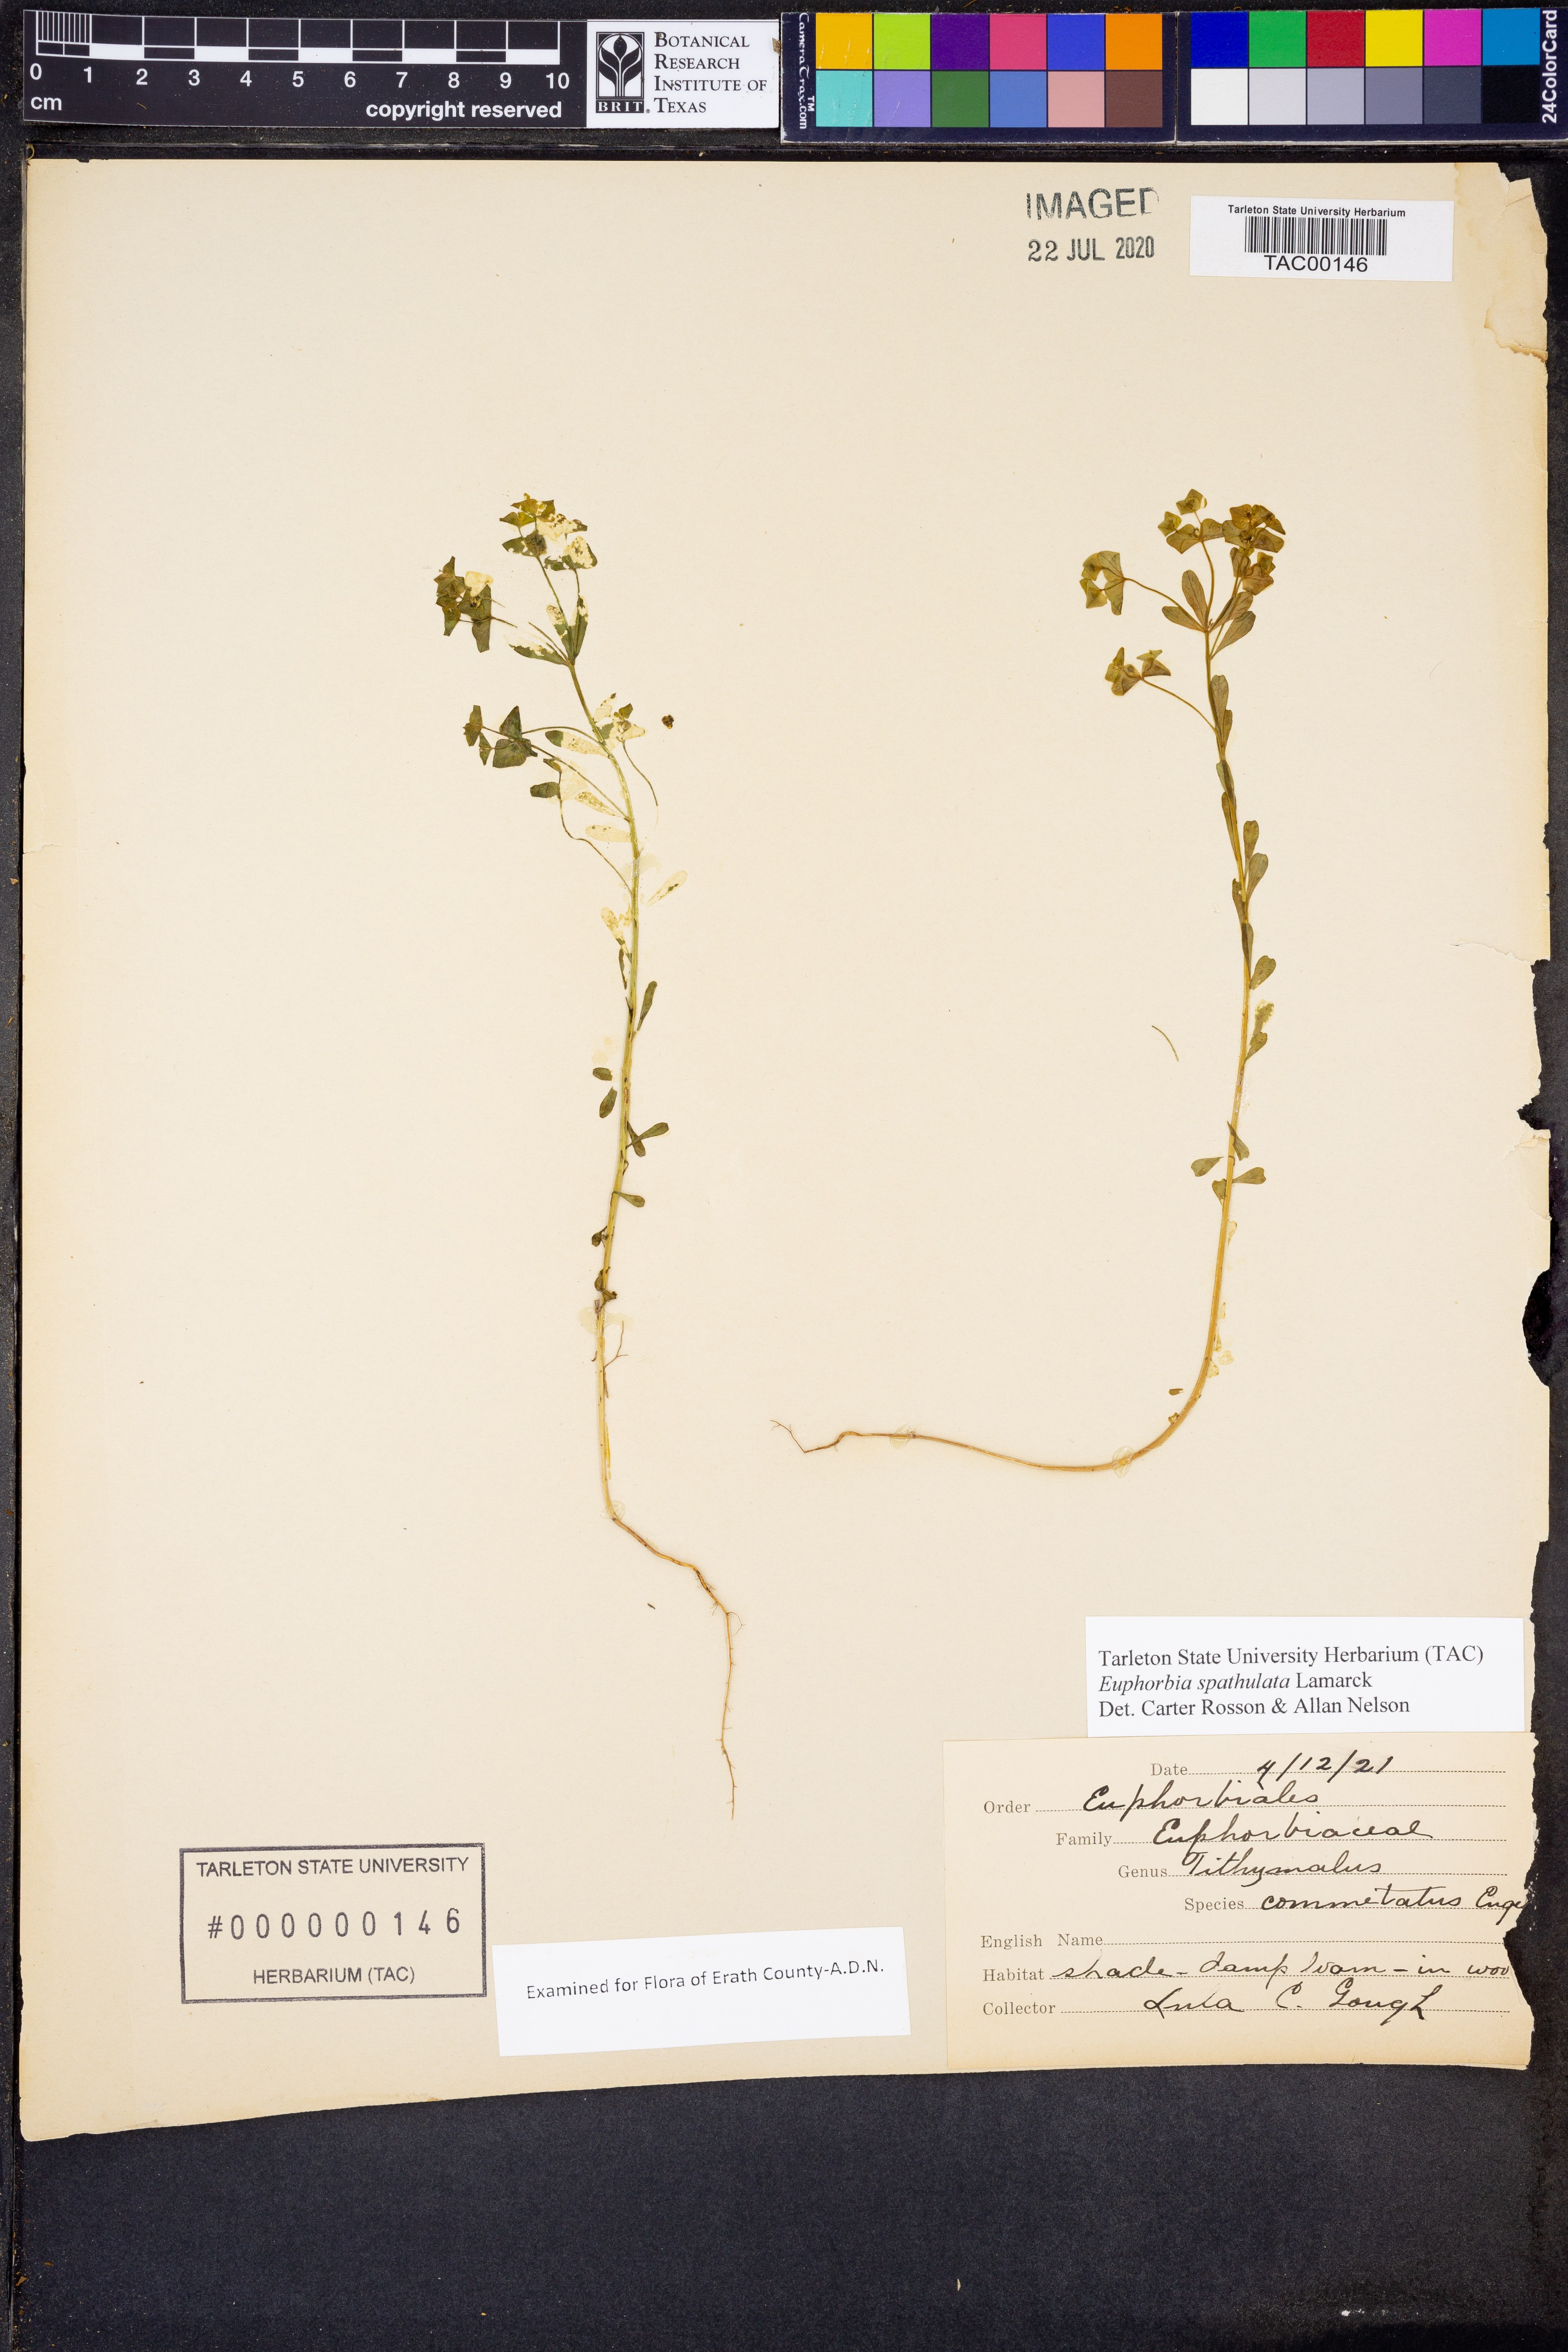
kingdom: Plantae
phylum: Tracheophyta
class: Magnoliopsida
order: Malpighiales
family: Euphorbiaceae
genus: Euphorbia
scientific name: Euphorbia spathulata
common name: Blunt spurge
